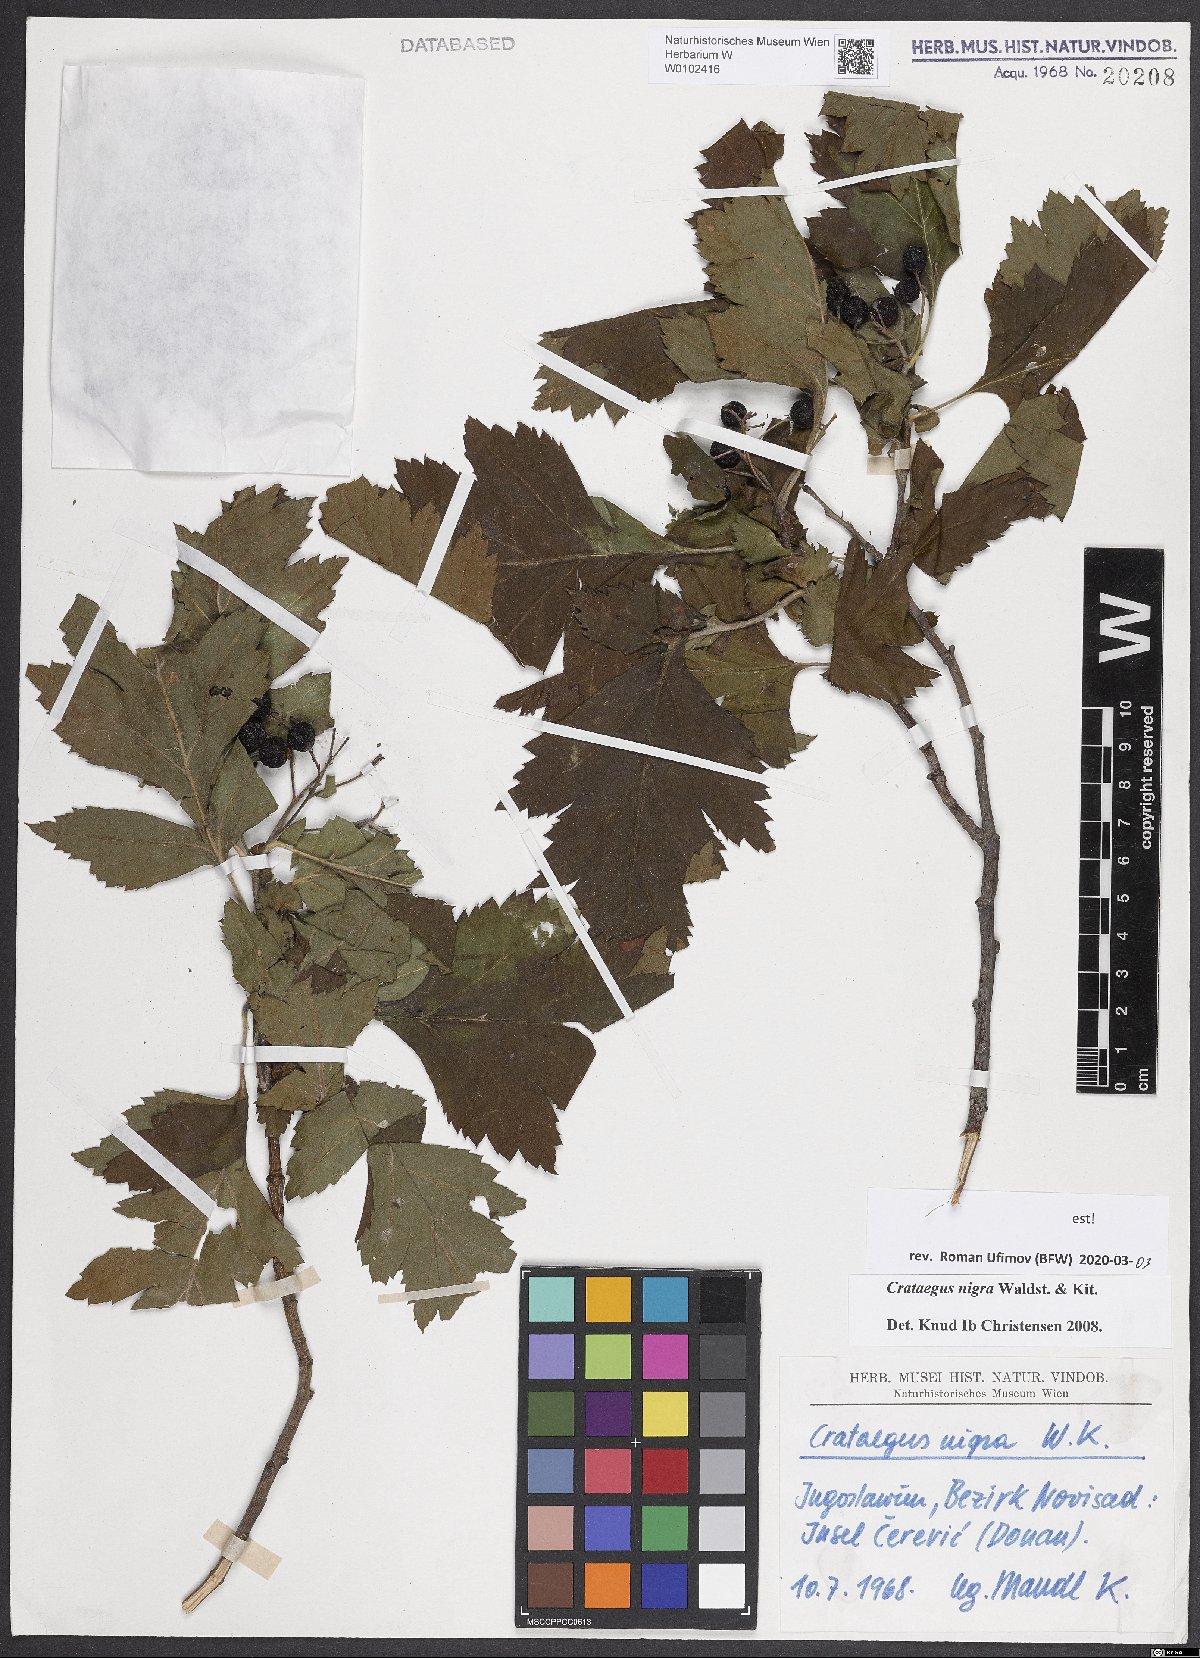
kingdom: Plantae
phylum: Tracheophyta
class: Magnoliopsida
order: Rosales
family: Rosaceae
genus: Crataegus
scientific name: Crataegus nigra
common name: Hungarian thorn
